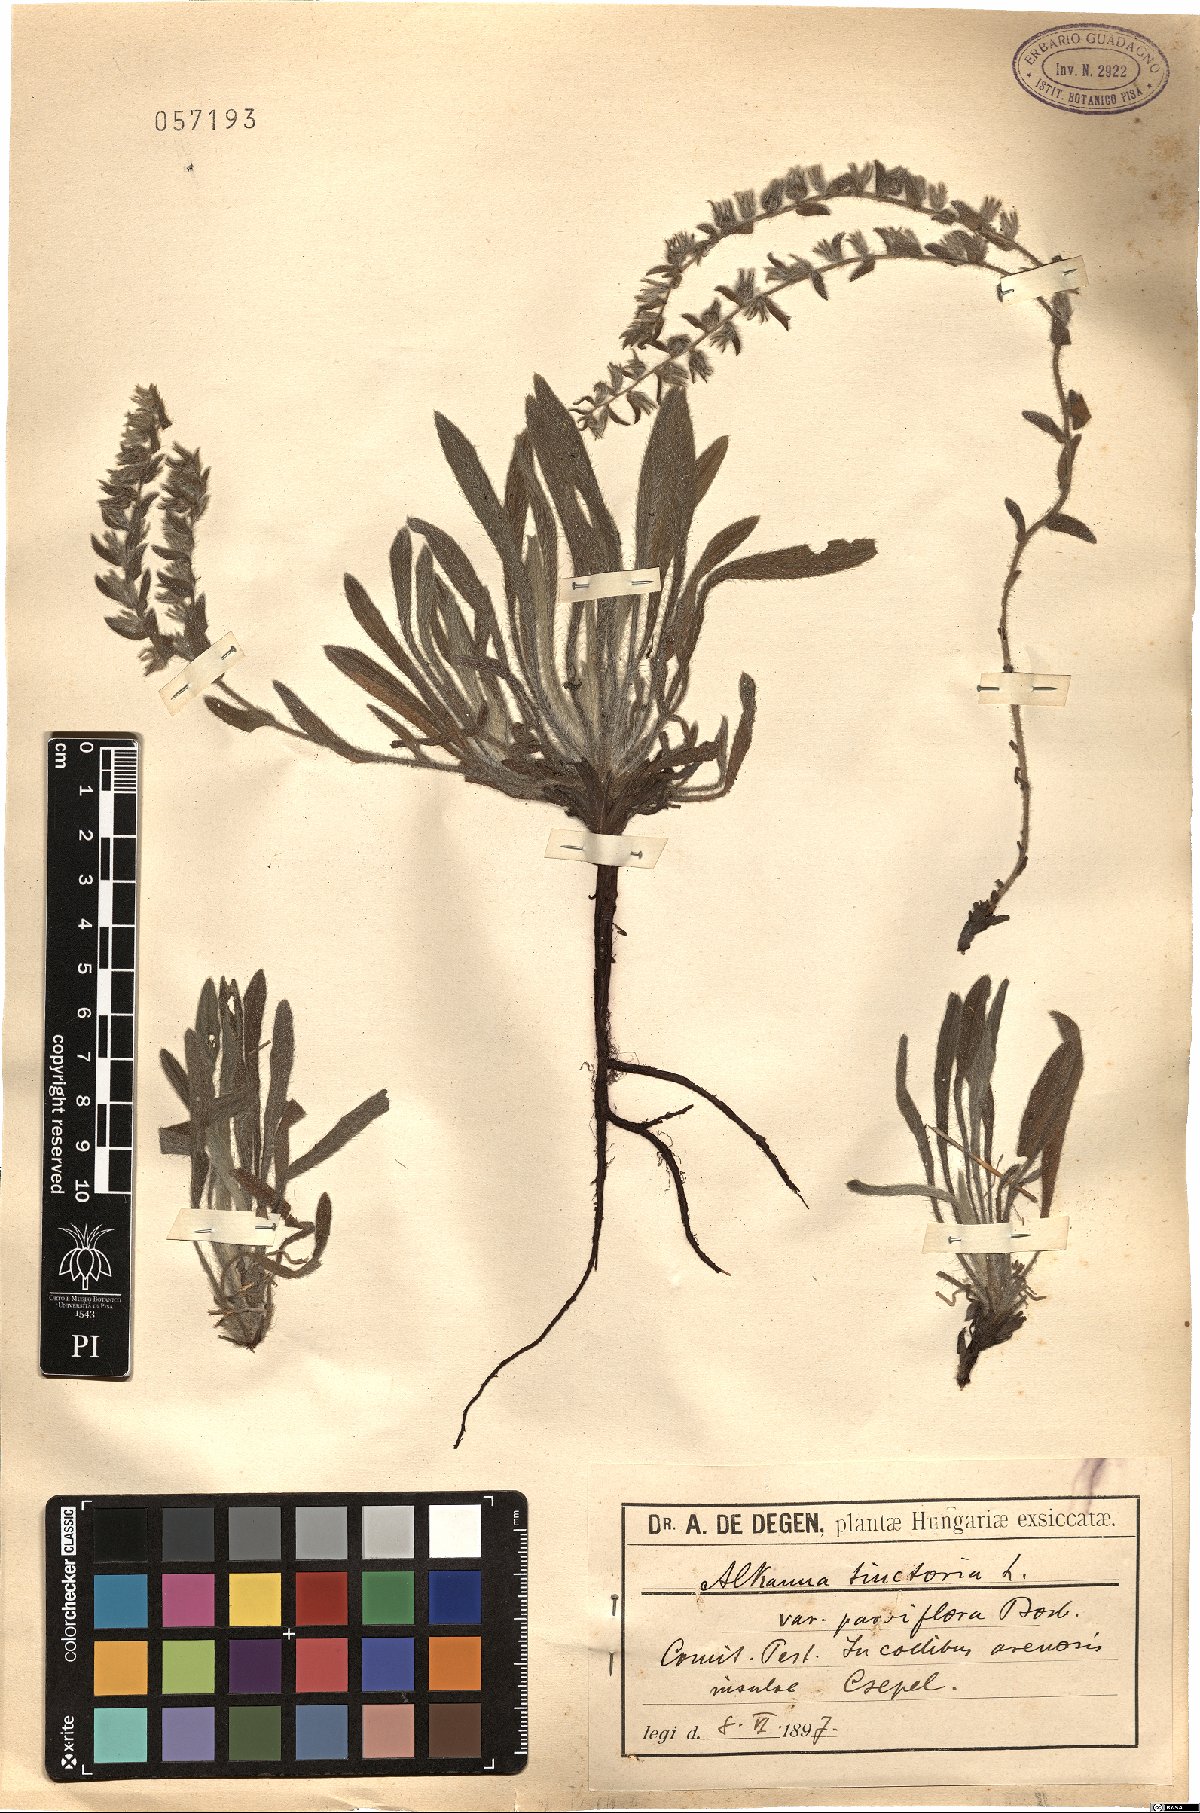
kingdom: Plantae
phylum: Tracheophyta
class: Magnoliopsida
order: Boraginales
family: Boraginaceae
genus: Alkanna
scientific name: Alkanna tinctoria
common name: Dyer's-alkanet
